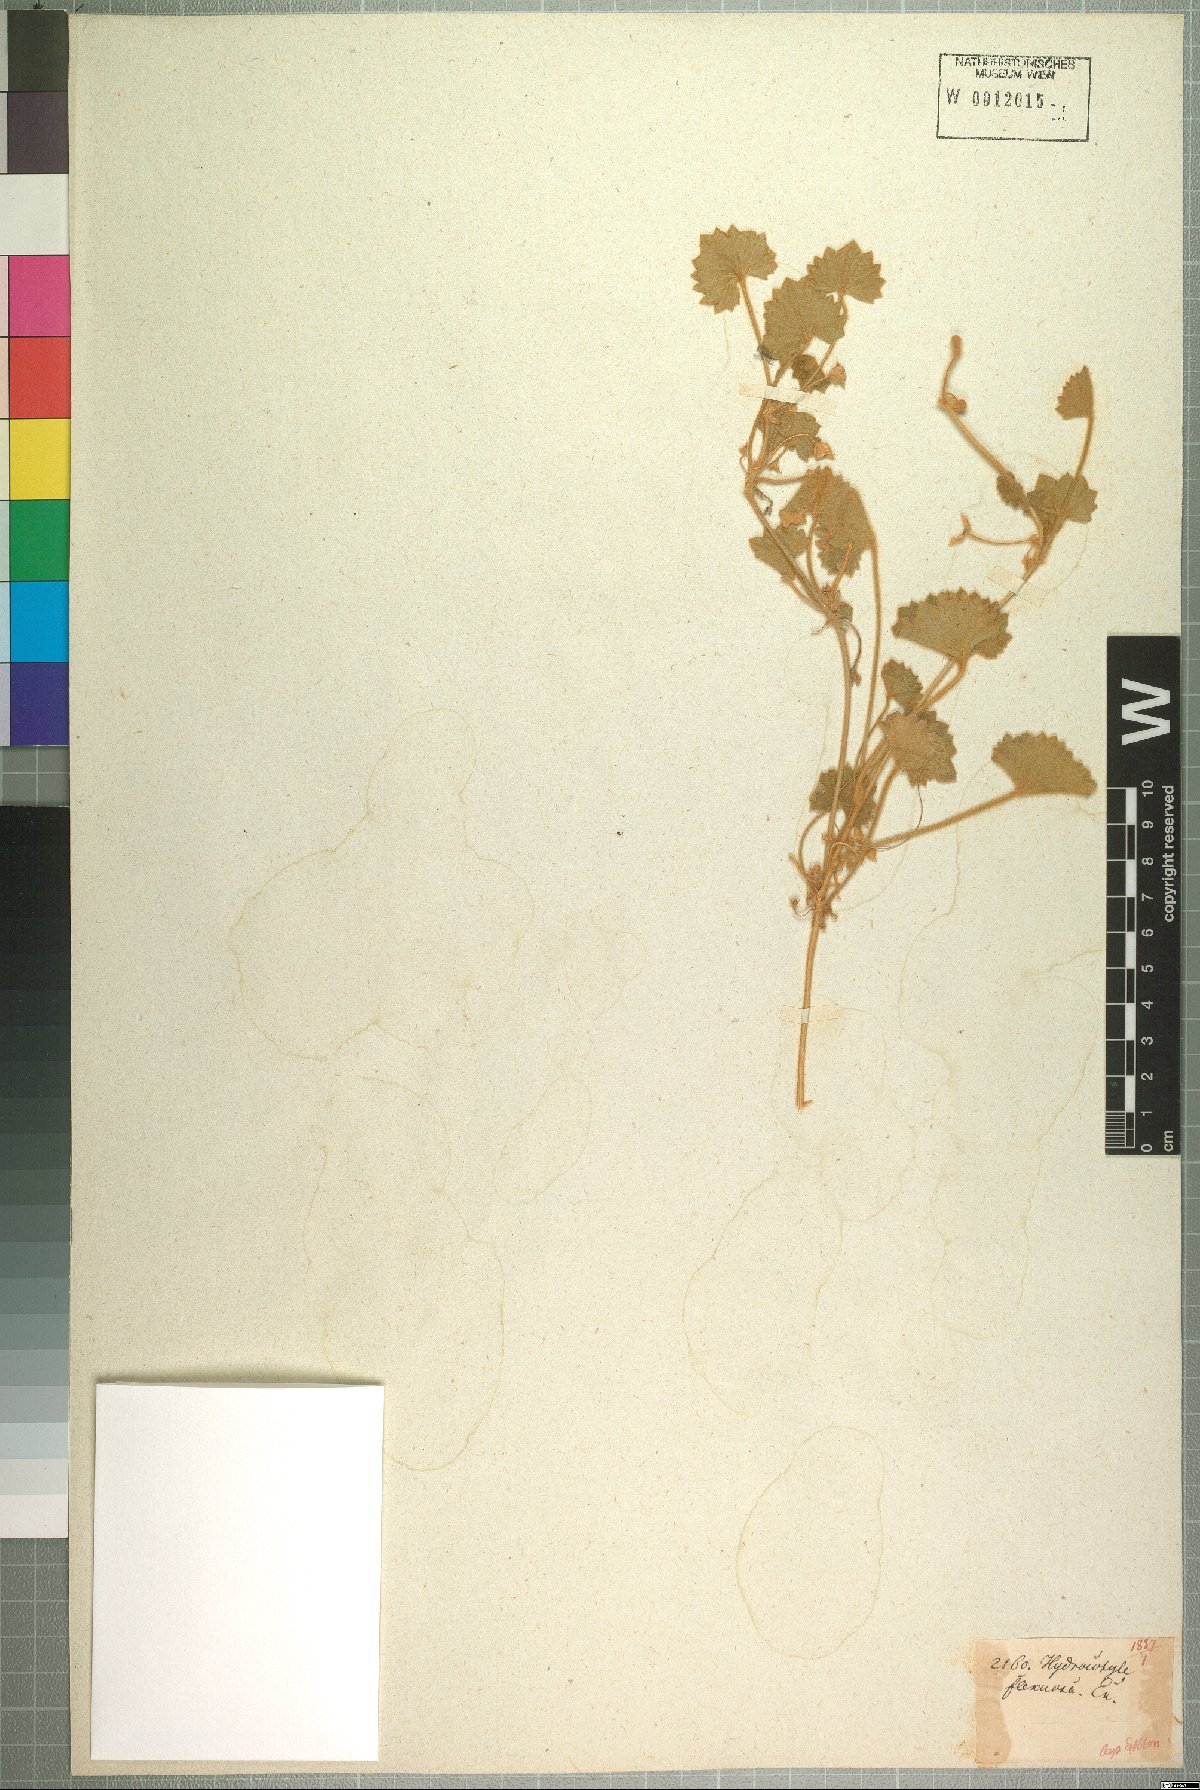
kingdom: Plantae
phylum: Tracheophyta
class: Magnoliopsida
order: Apiales
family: Apiaceae
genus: Centella
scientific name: Centella flexuosa
